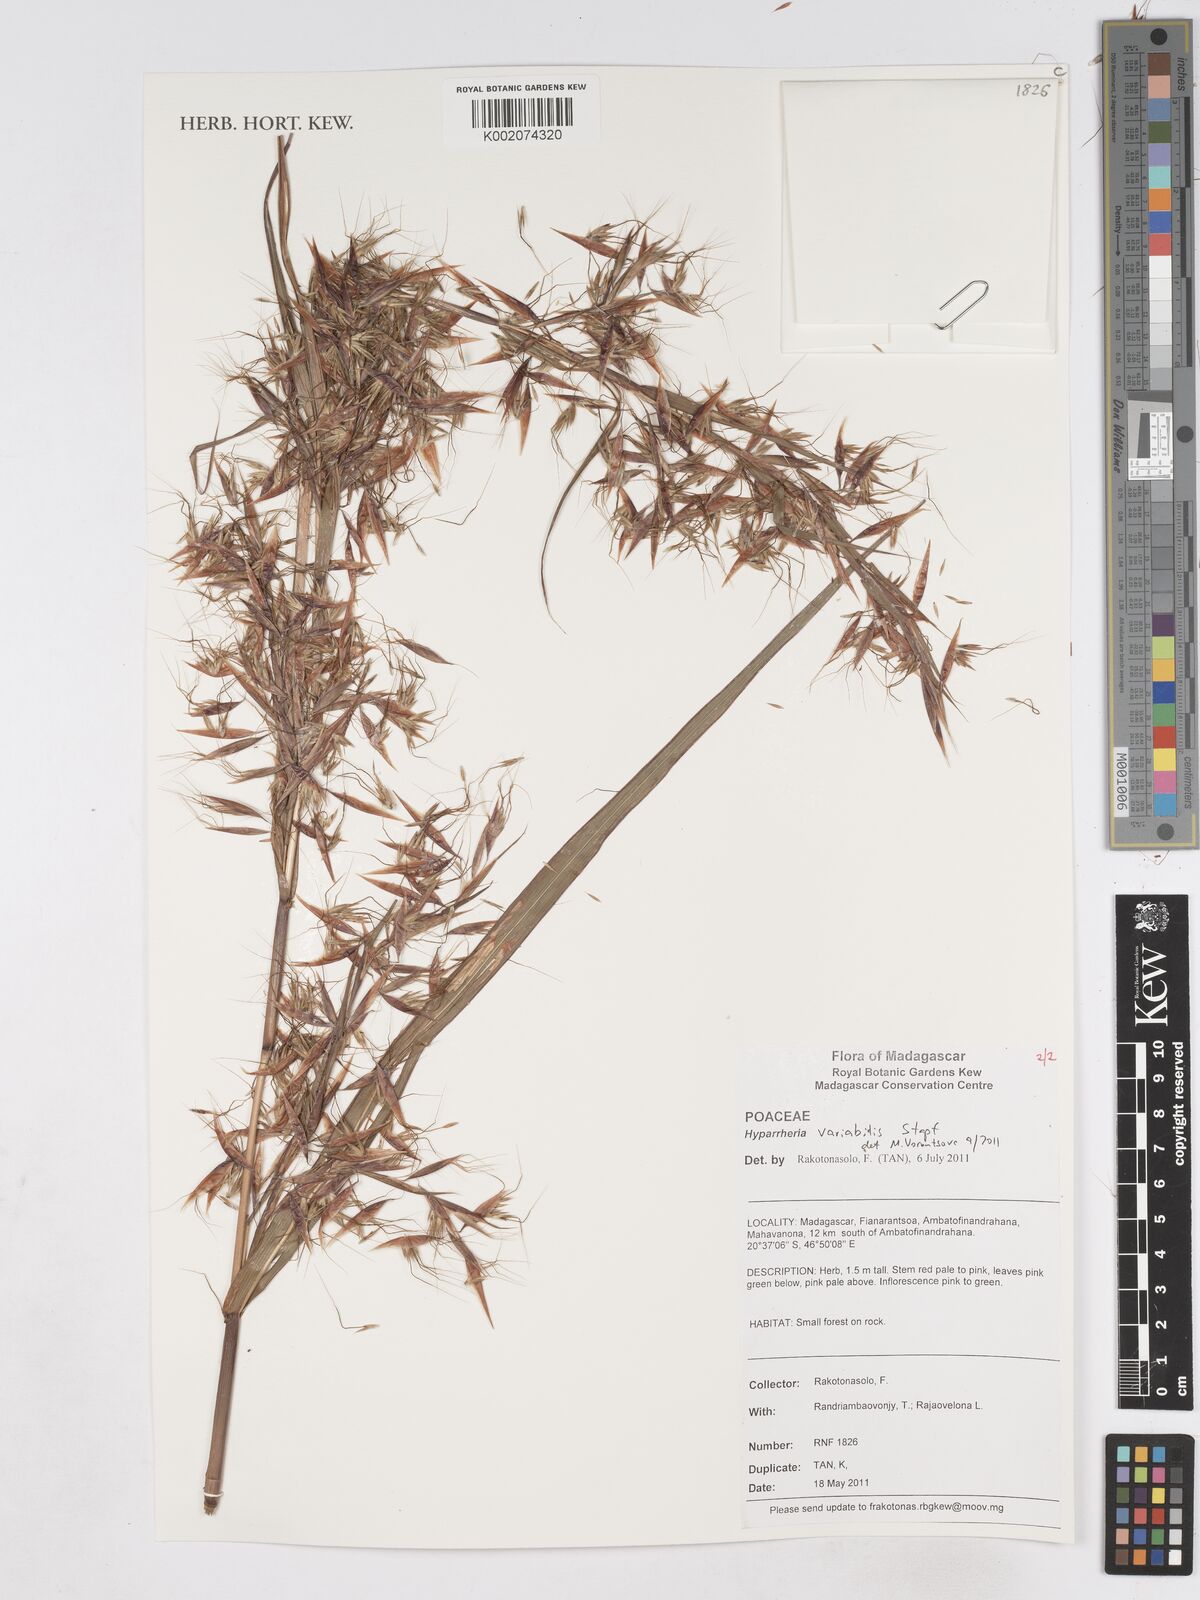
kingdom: Plantae
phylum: Tracheophyta
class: Liliopsida
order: Poales
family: Poaceae
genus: Hyparrhenia
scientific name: Hyparrhenia variabilis
